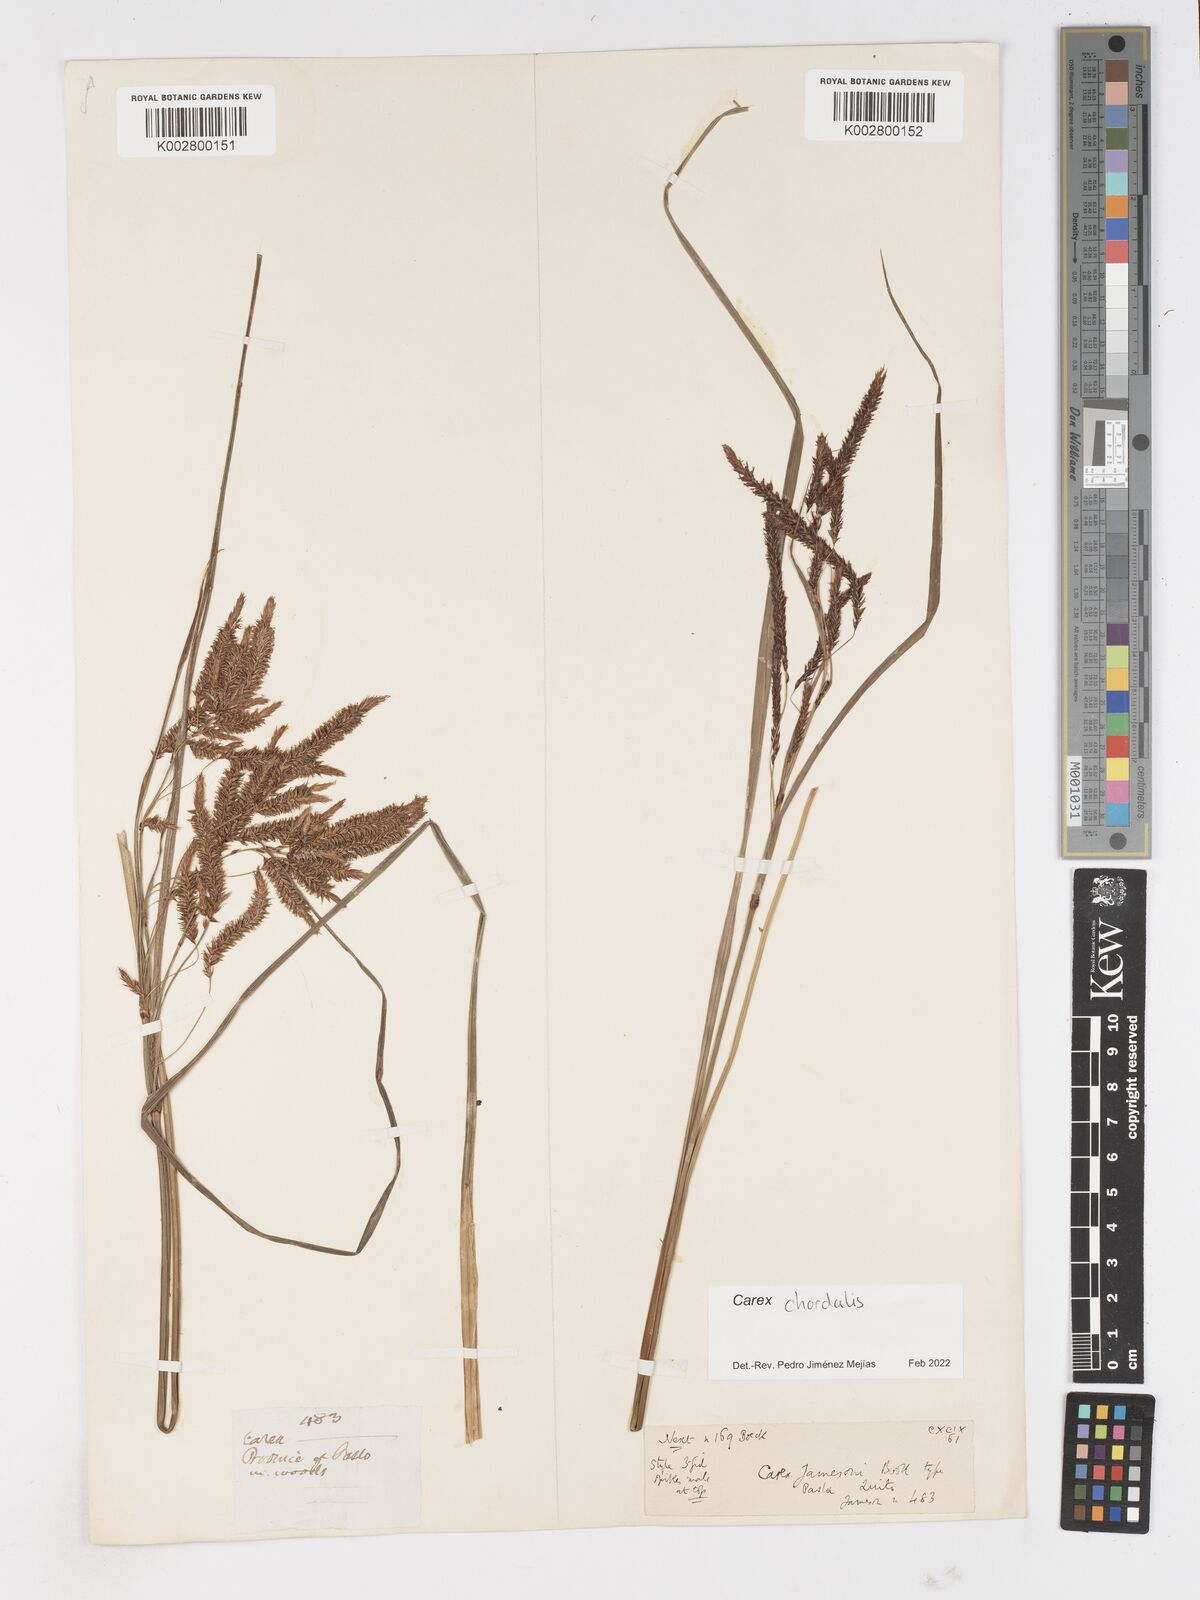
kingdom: Plantae
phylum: Tracheophyta
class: Liliopsida
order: Poales
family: Cyperaceae
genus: Carex
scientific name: Carex jamesonii
